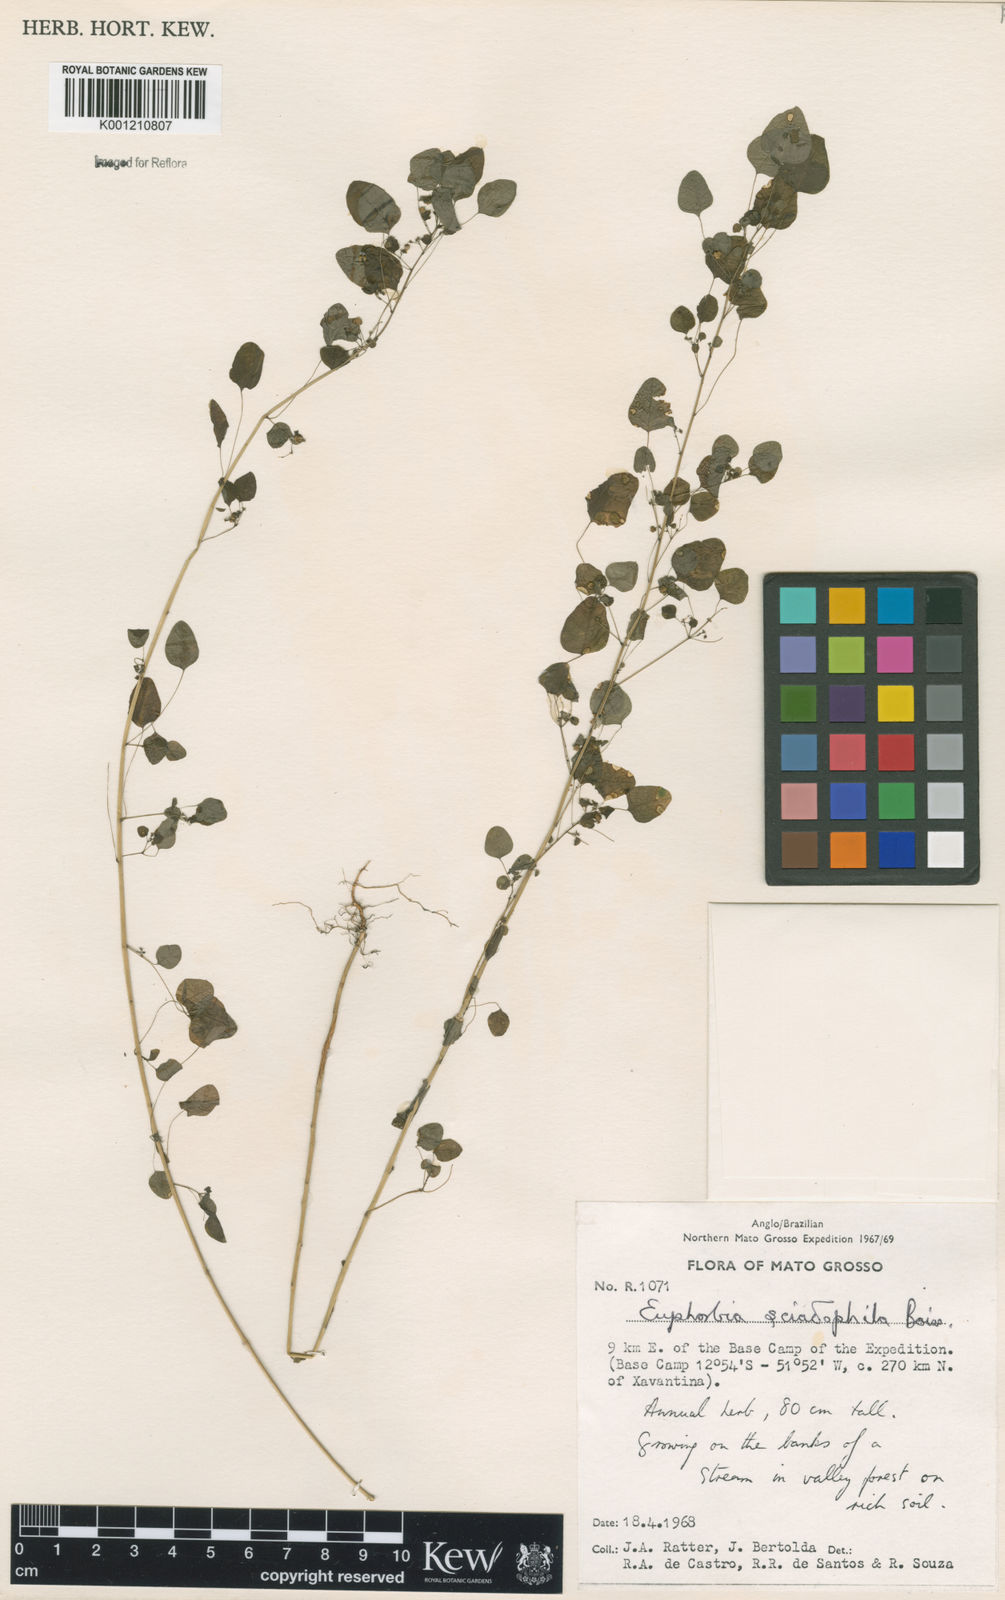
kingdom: Plantae
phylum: Tracheophyta
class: Magnoliopsida
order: Malpighiales
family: Euphorbiaceae
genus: Euphorbia
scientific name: Euphorbia sciadophila
